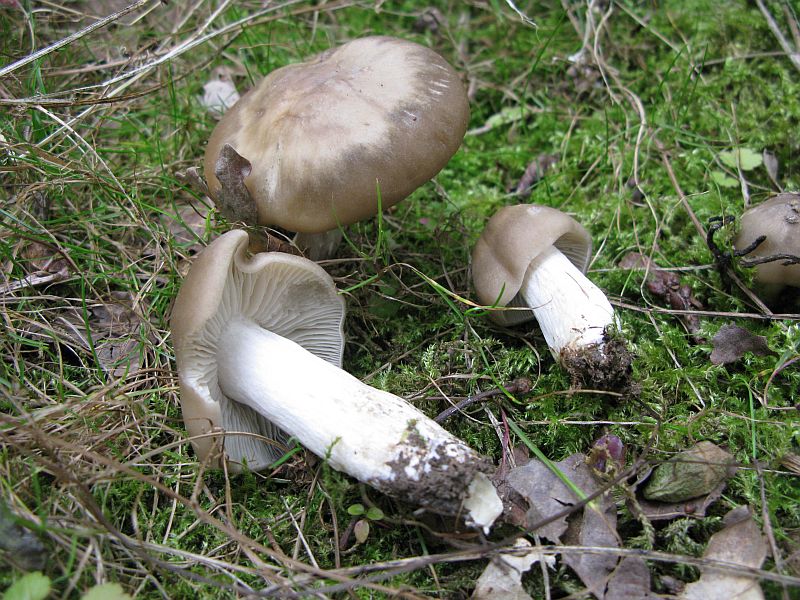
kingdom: Fungi
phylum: Basidiomycota
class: Agaricomycetes
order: Agaricales
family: Entolomataceae
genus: Entoloma
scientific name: Entoloma lividoalbum
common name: lysstokket rødblad
